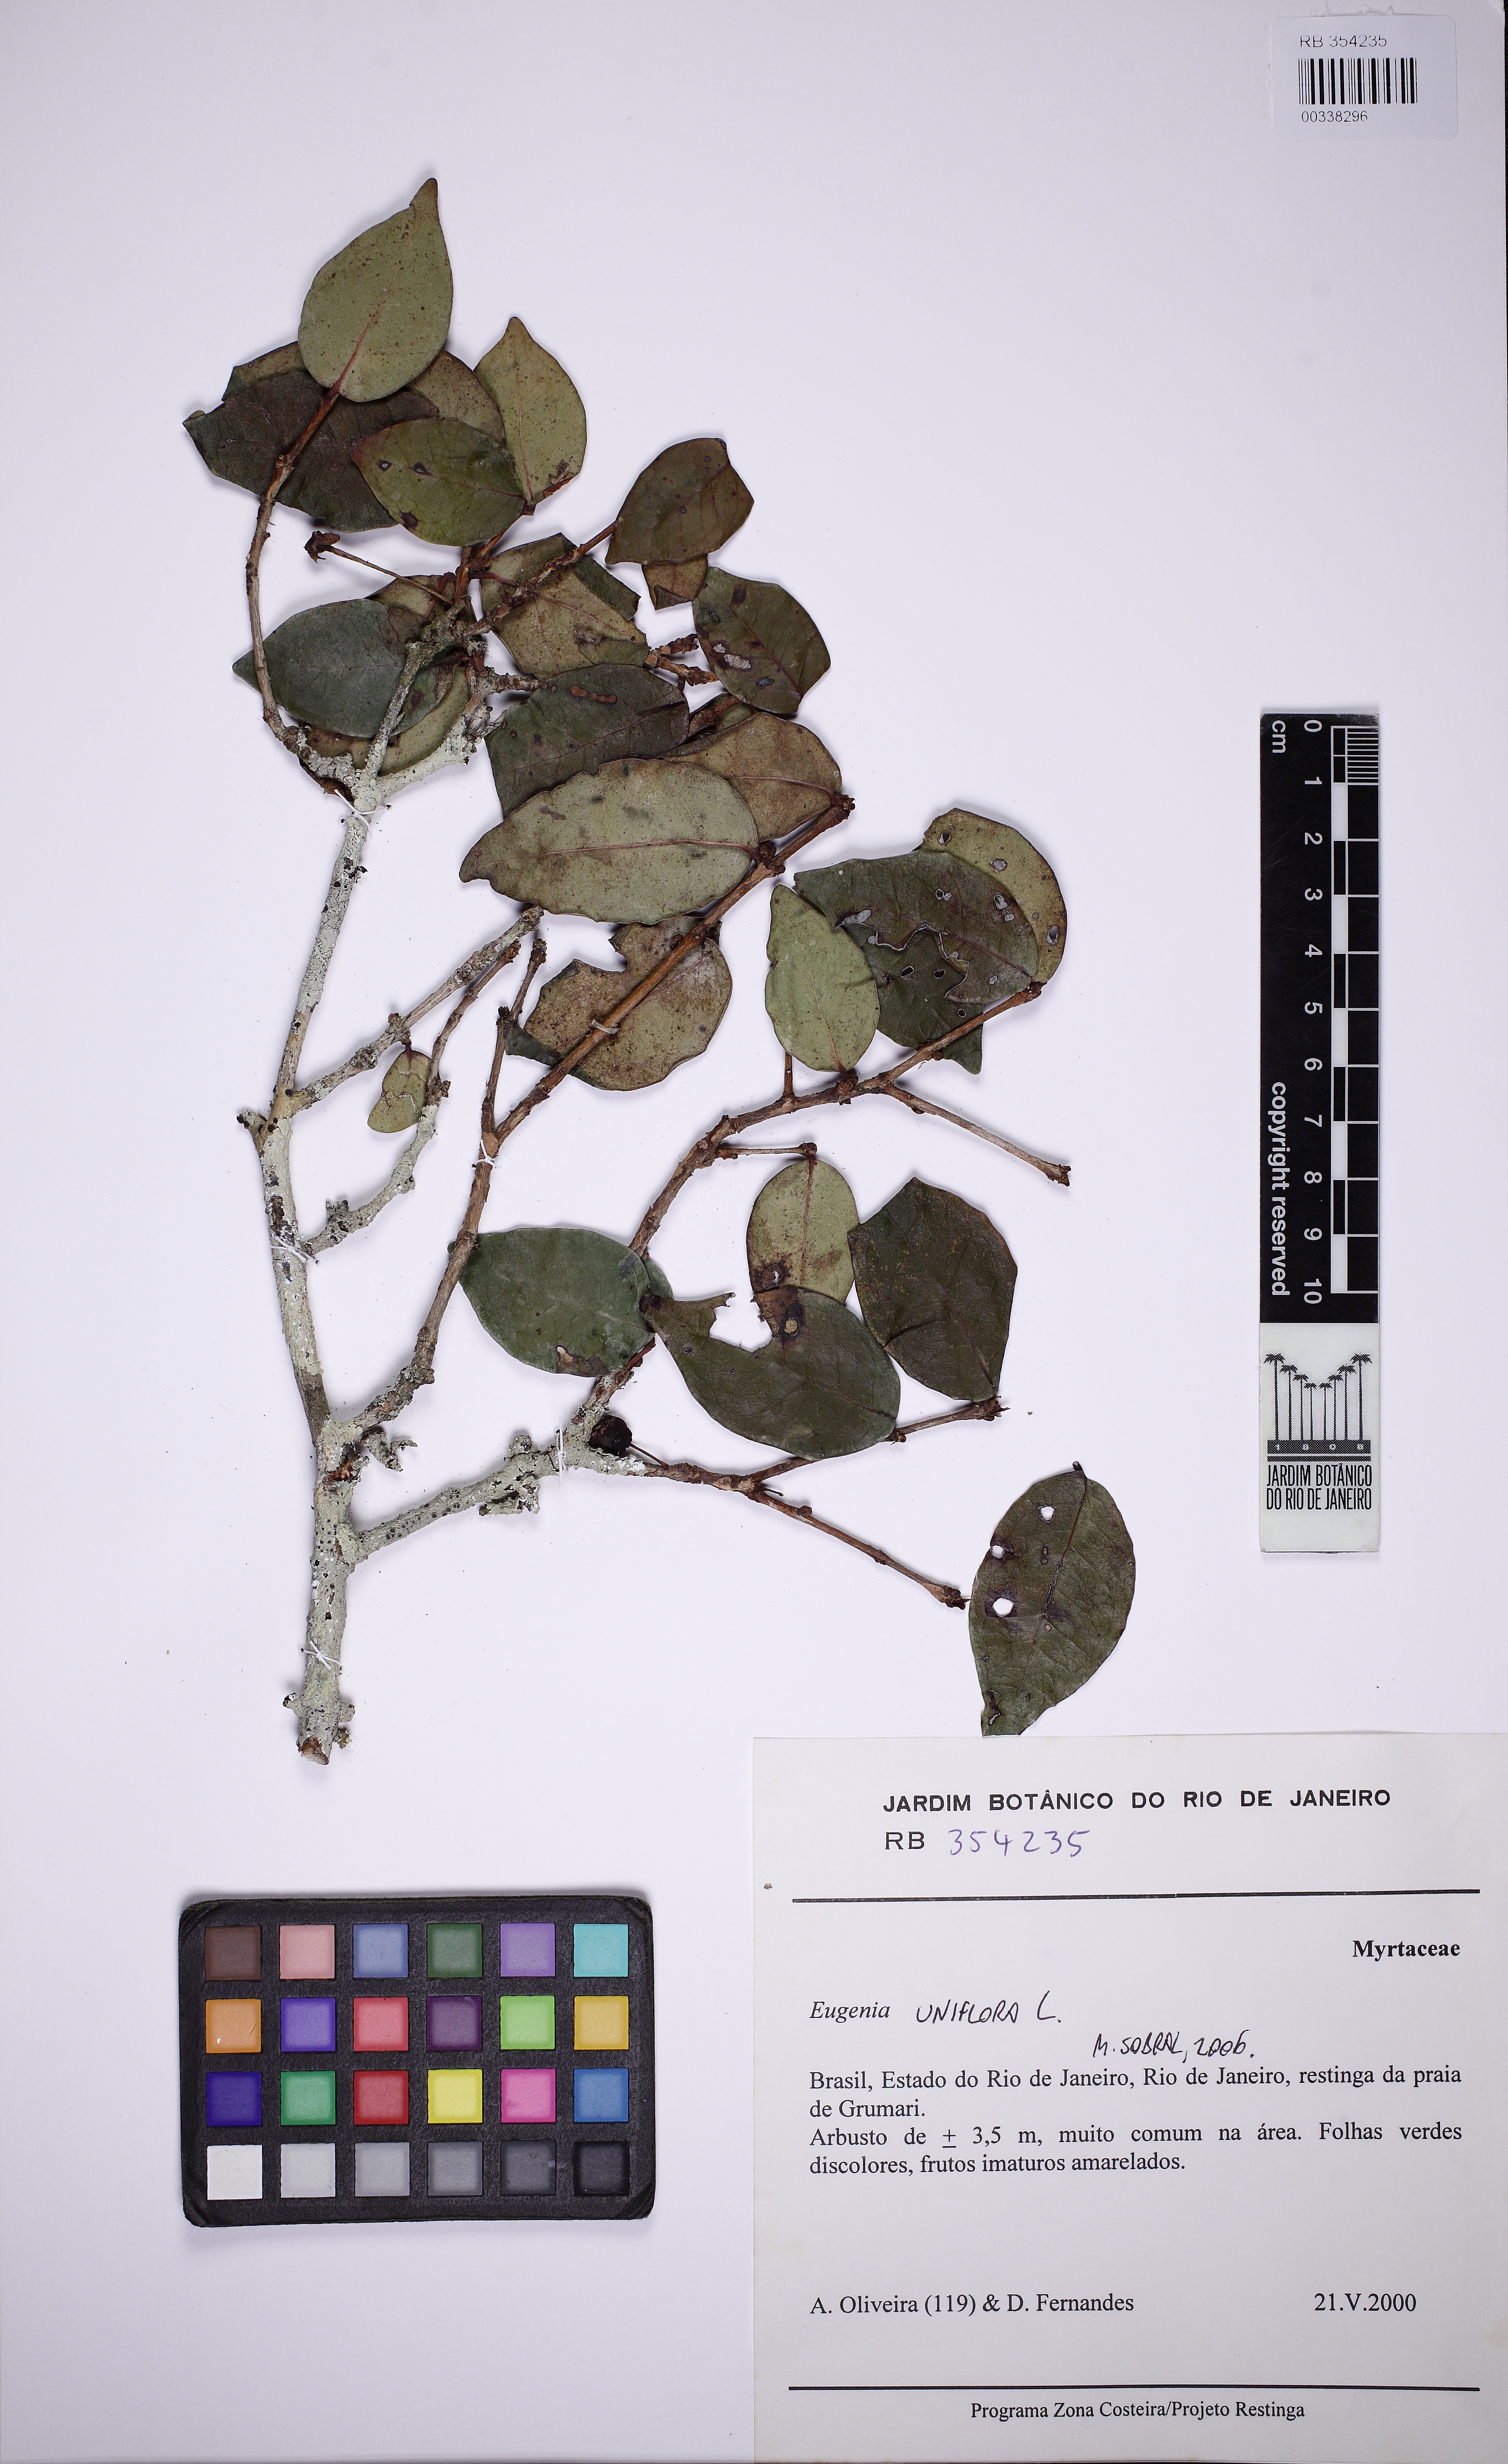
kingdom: Plantae
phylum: Tracheophyta
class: Magnoliopsida
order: Myrtales
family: Myrtaceae
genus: Eugenia
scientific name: Eugenia uniflora
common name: Surinam cherry
